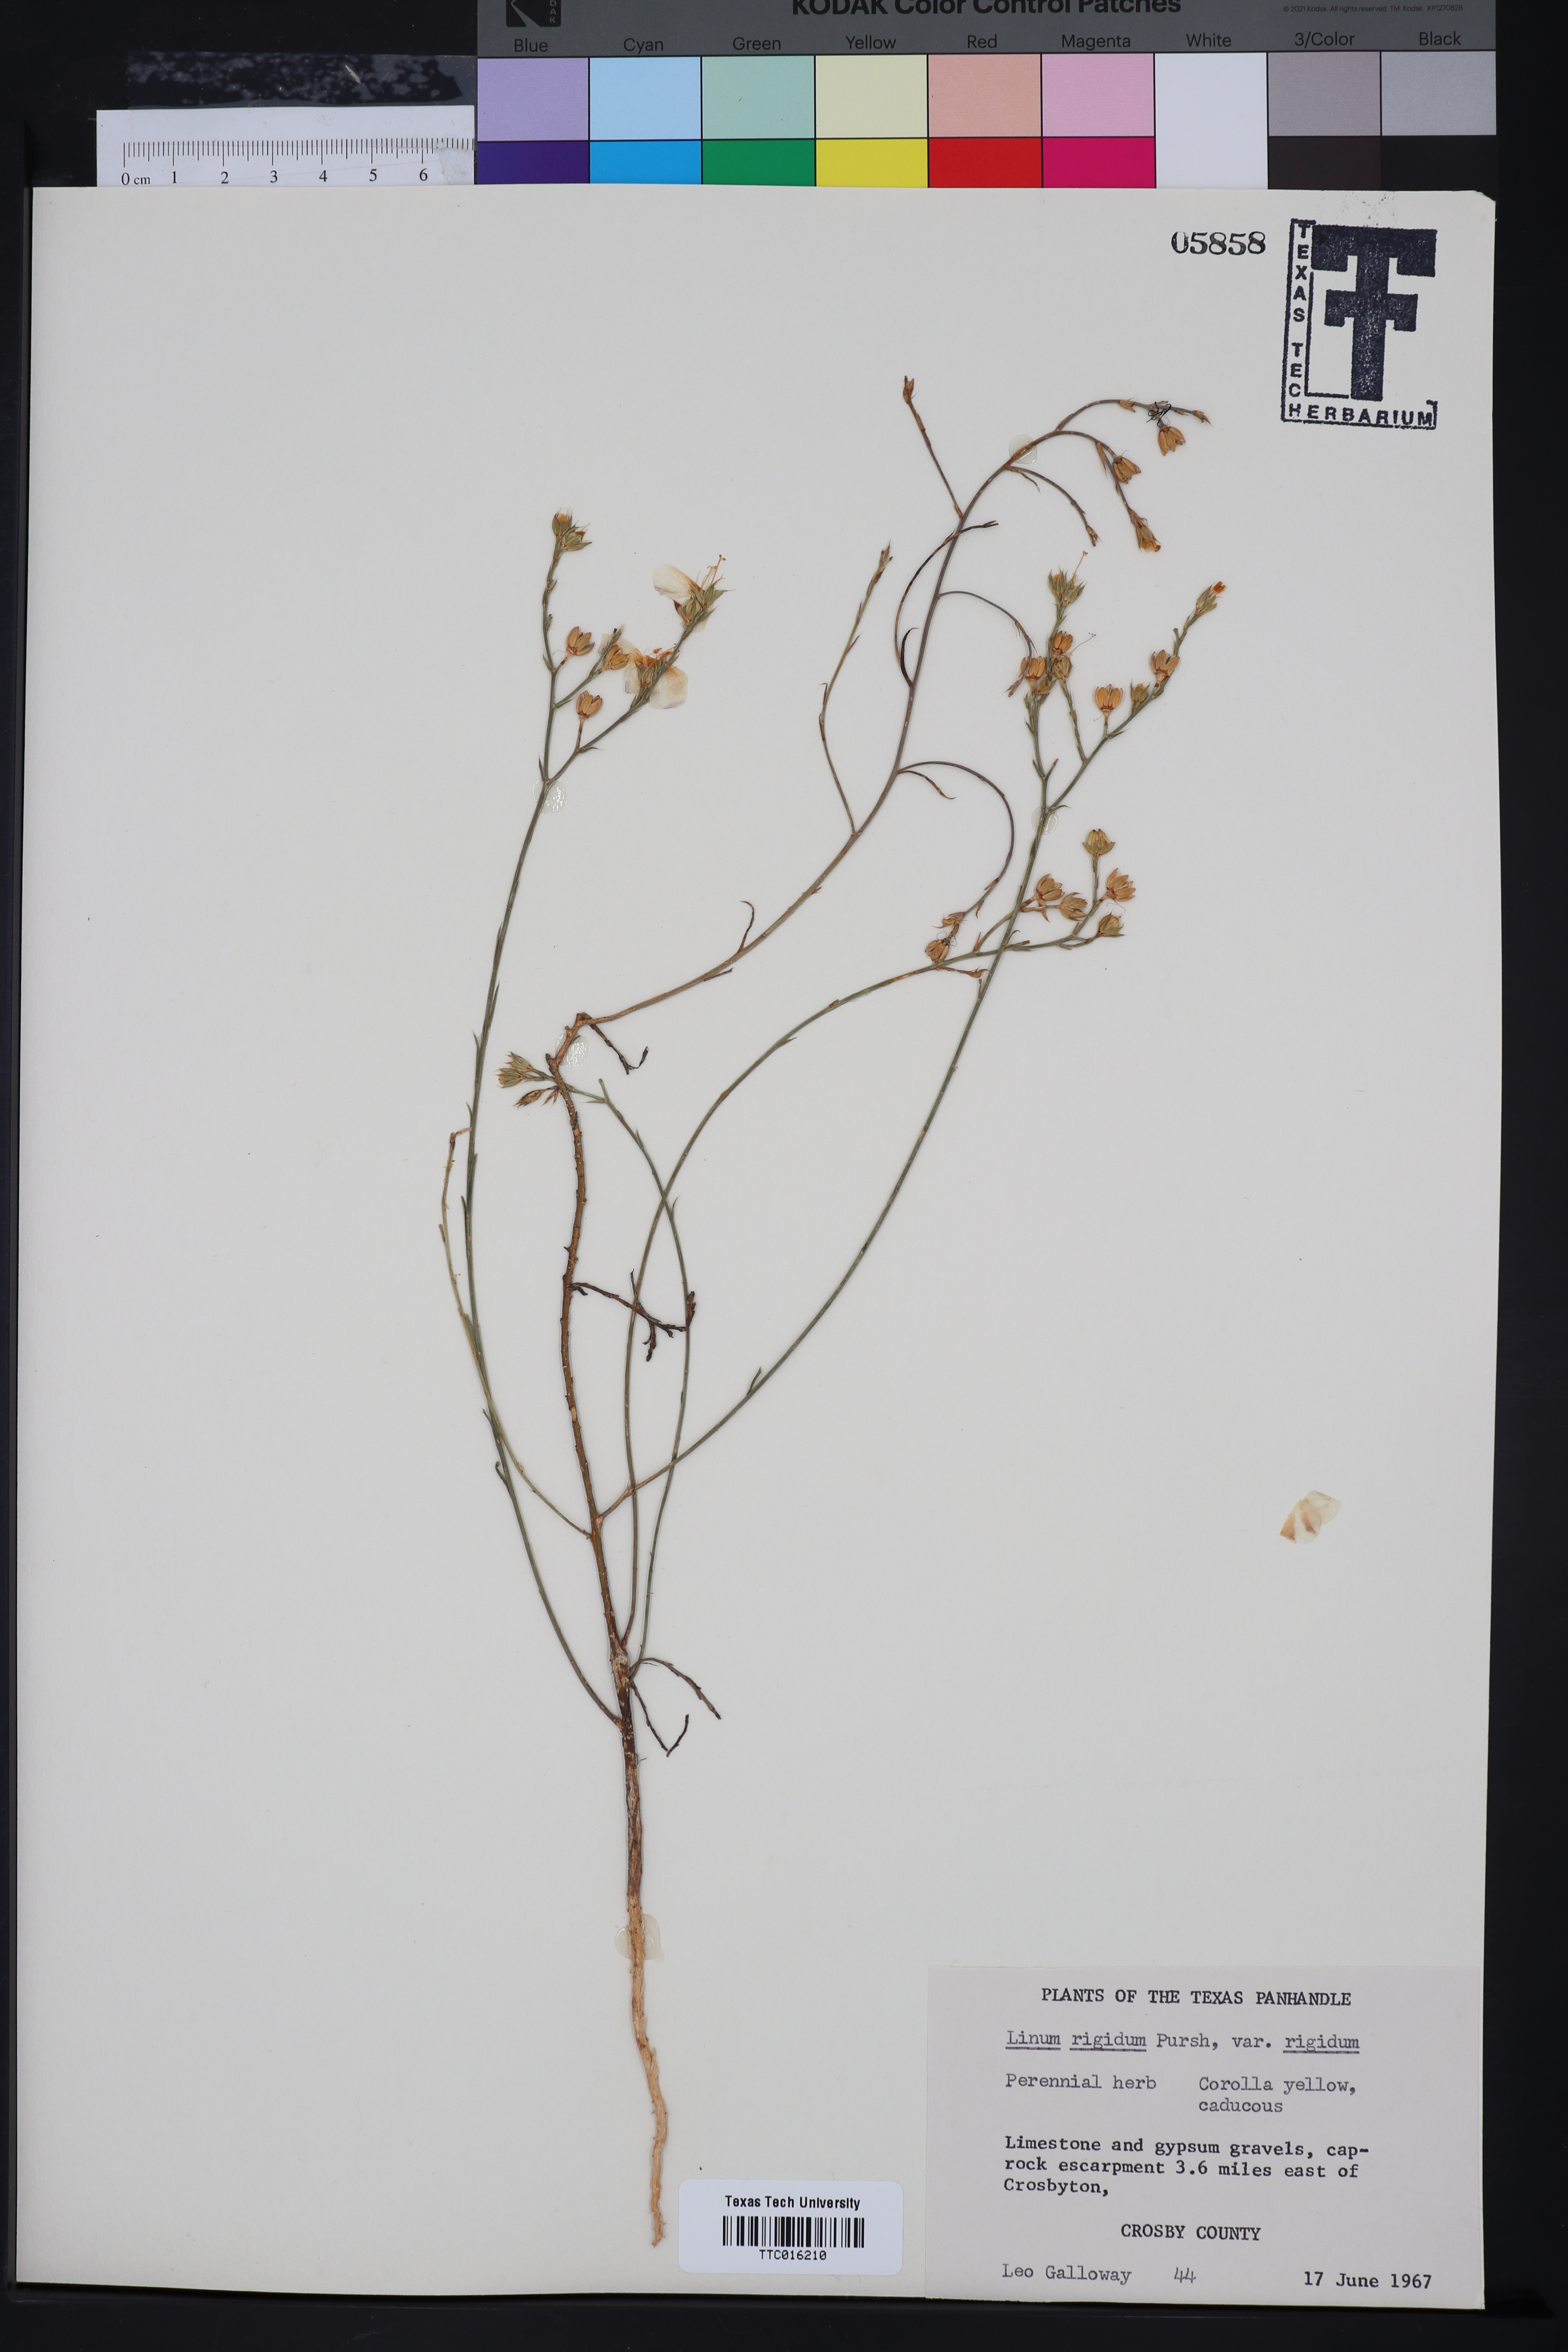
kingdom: Plantae
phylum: Tracheophyta
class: Magnoliopsida
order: Malpighiales
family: Linaceae
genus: Linum
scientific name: Linum rigidum
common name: Stiff-stem flax
